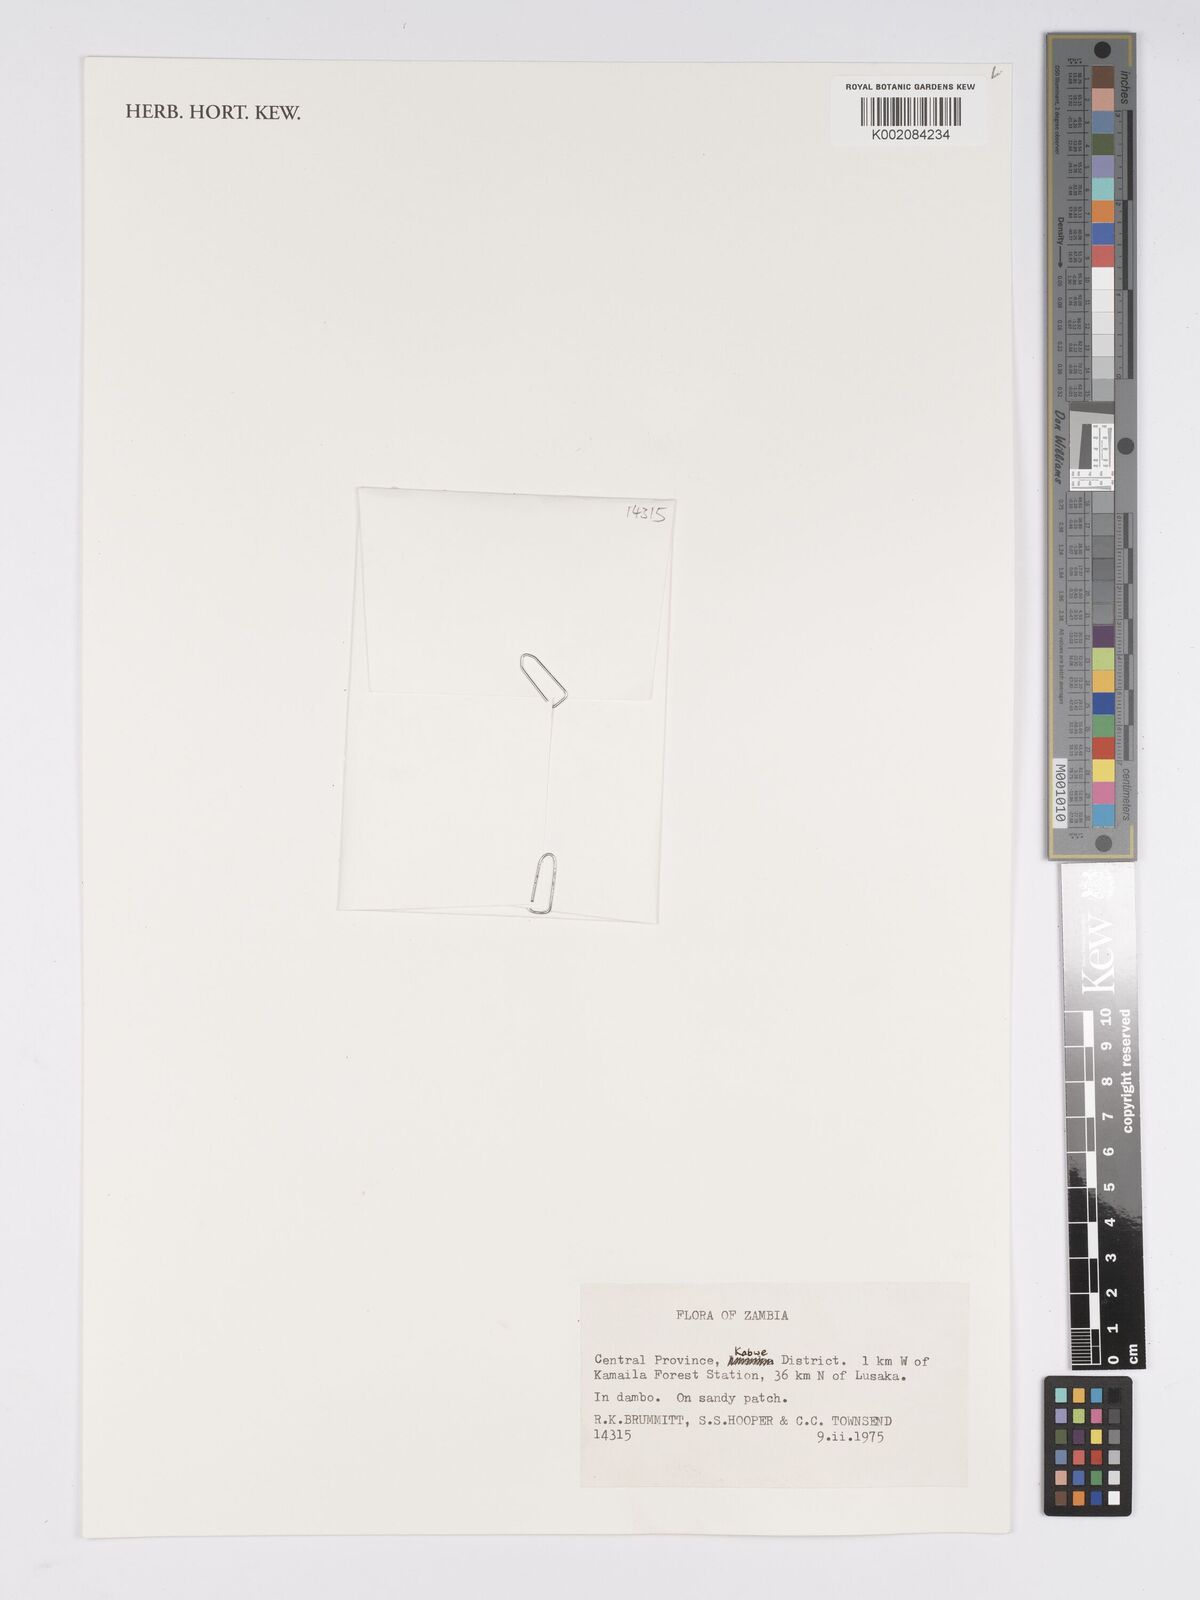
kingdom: Plantae
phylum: Tracheophyta
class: Liliopsida
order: Poales
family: Cyperaceae
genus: Bulbostylis
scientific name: Bulbostylis
